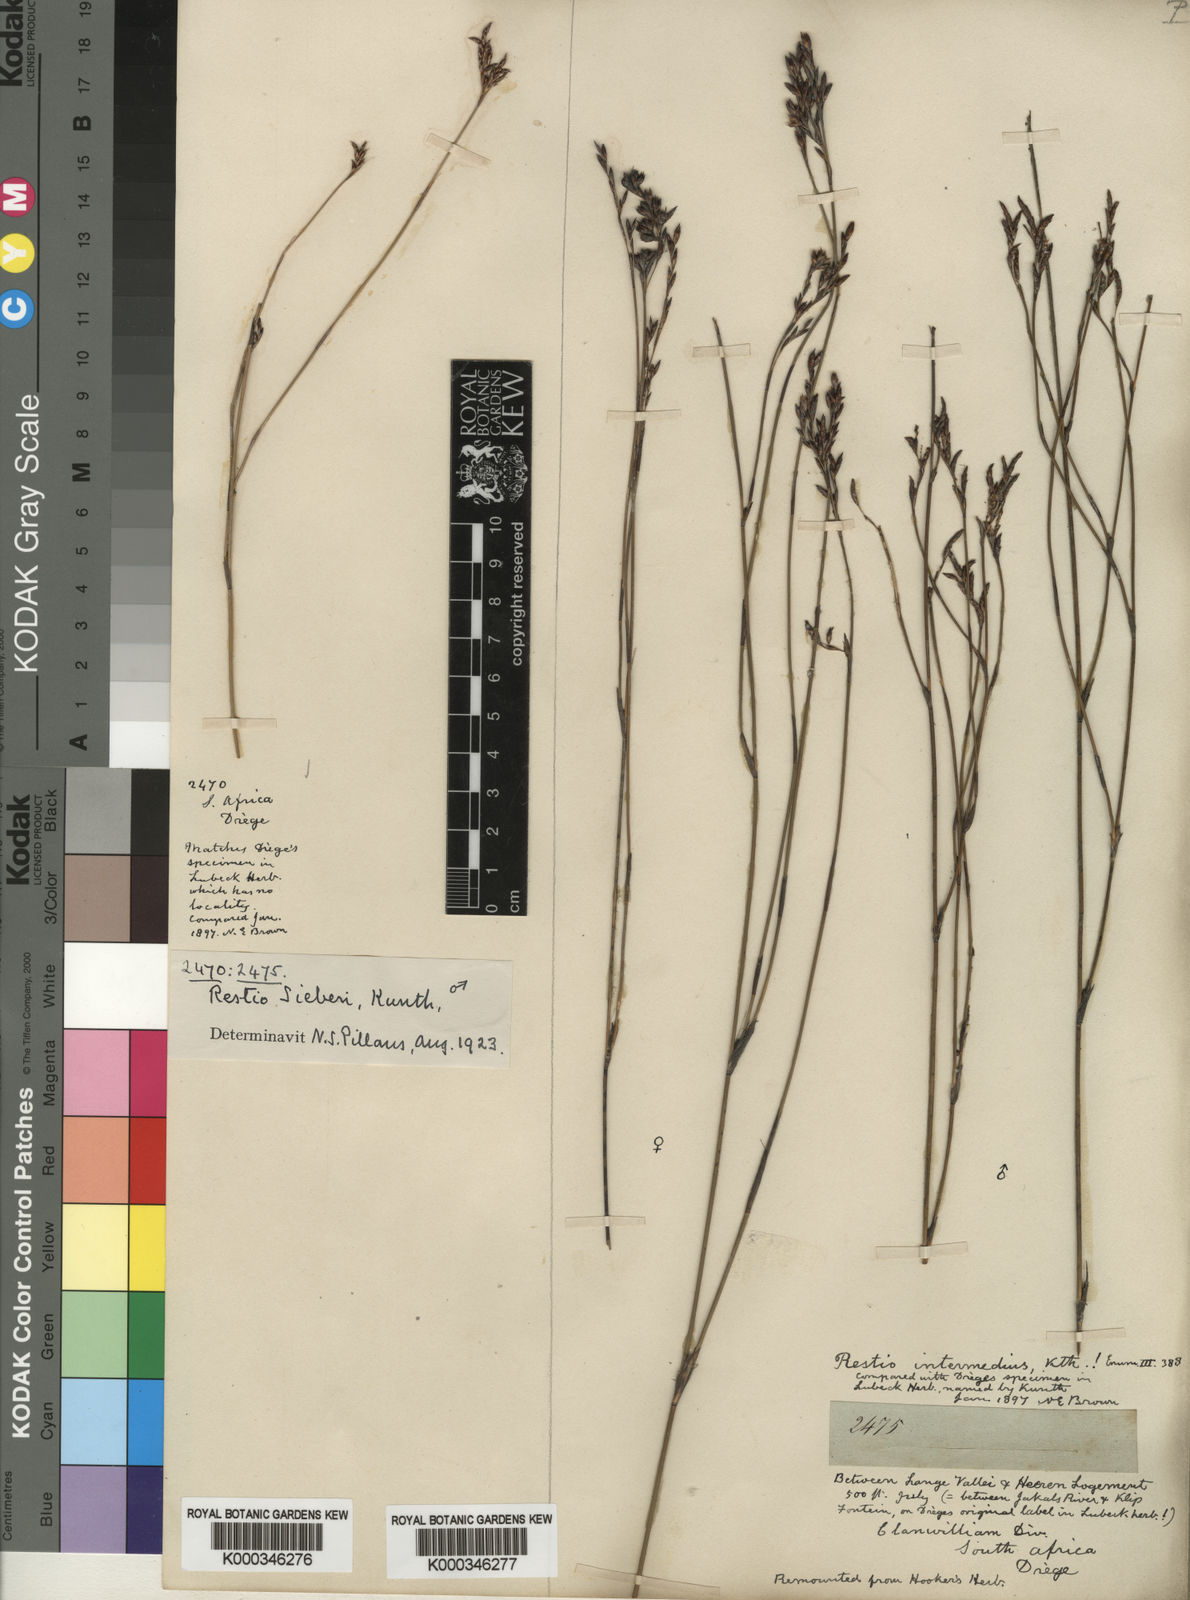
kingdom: Plantae
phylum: Tracheophyta
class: Liliopsida
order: Poales
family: Restionaceae
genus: Restio
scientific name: Restio sieberi
